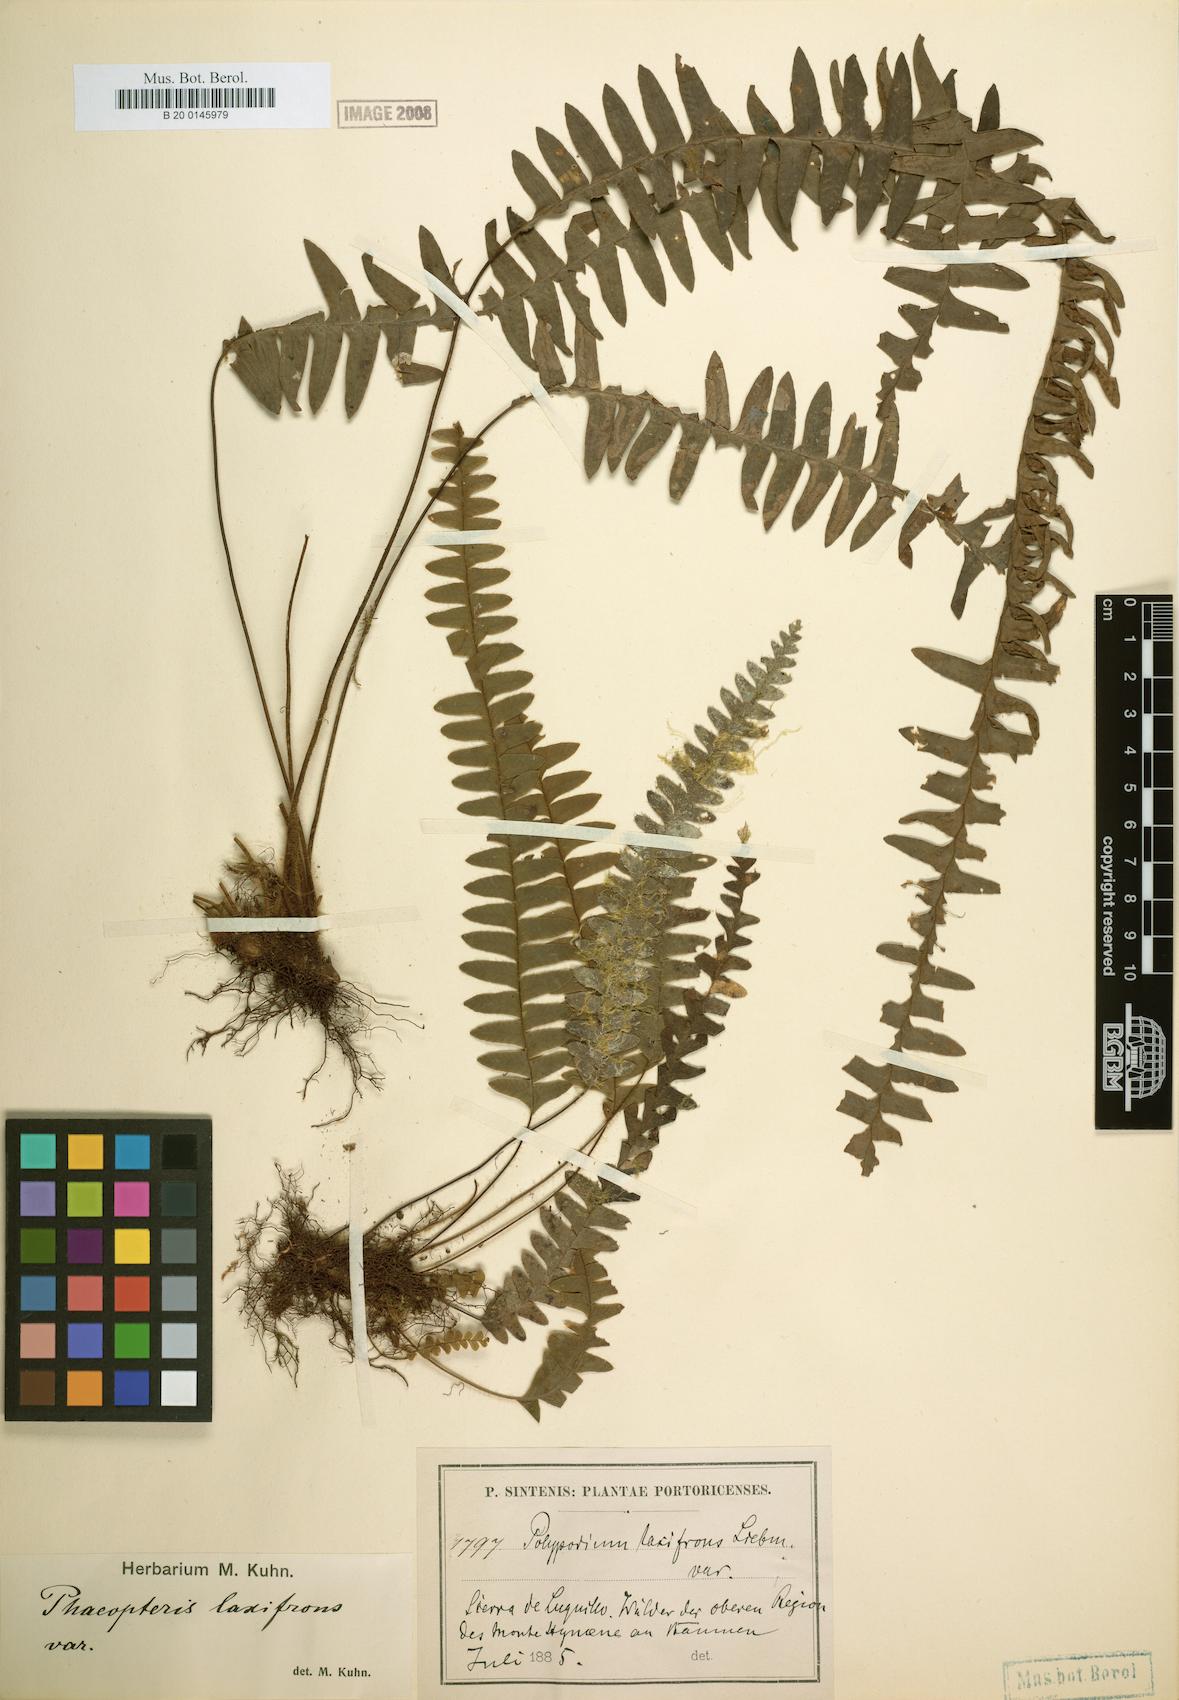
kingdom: Plantae
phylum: Tracheophyta
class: Polypodiopsida
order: Polypodiales
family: Polypodiaceae
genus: Terpsichore
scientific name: Terpsichore asplenifolia
